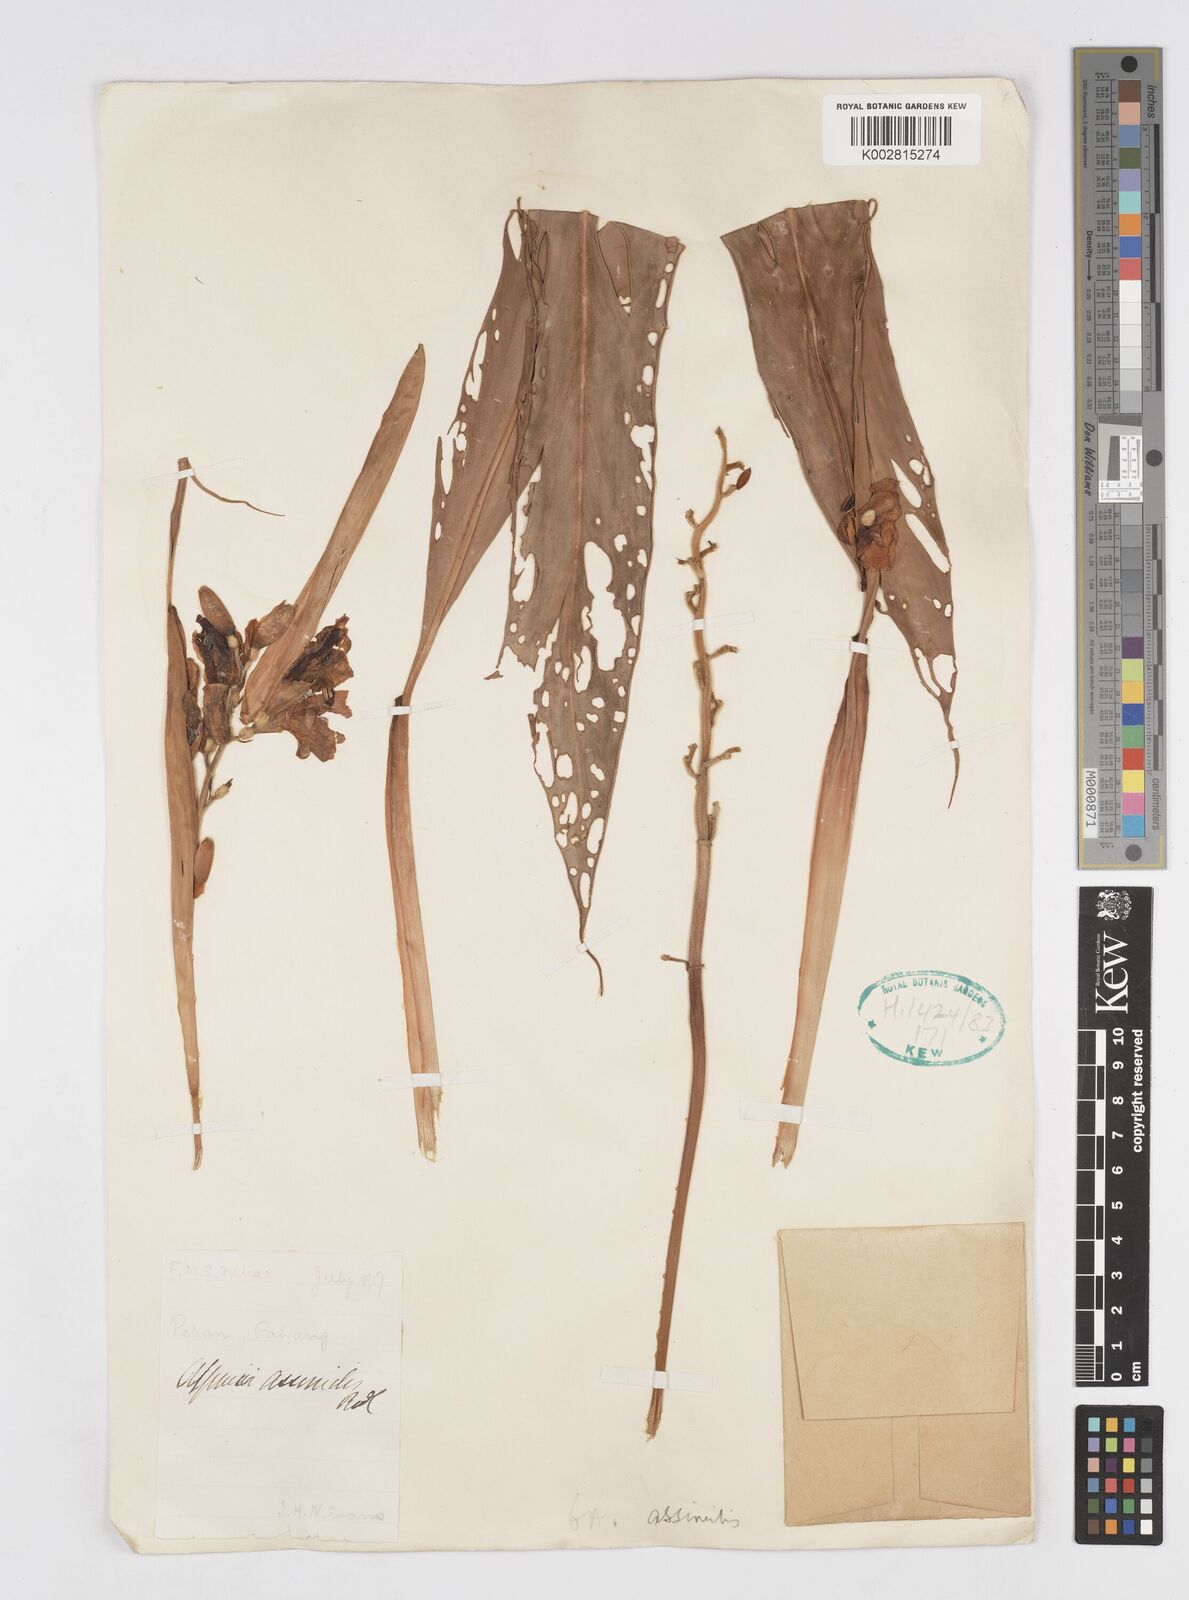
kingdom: Plantae
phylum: Tracheophyta
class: Liliopsida
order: Zingiberales
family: Zingiberaceae
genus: Alpinia
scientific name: Alpinia assimilis
